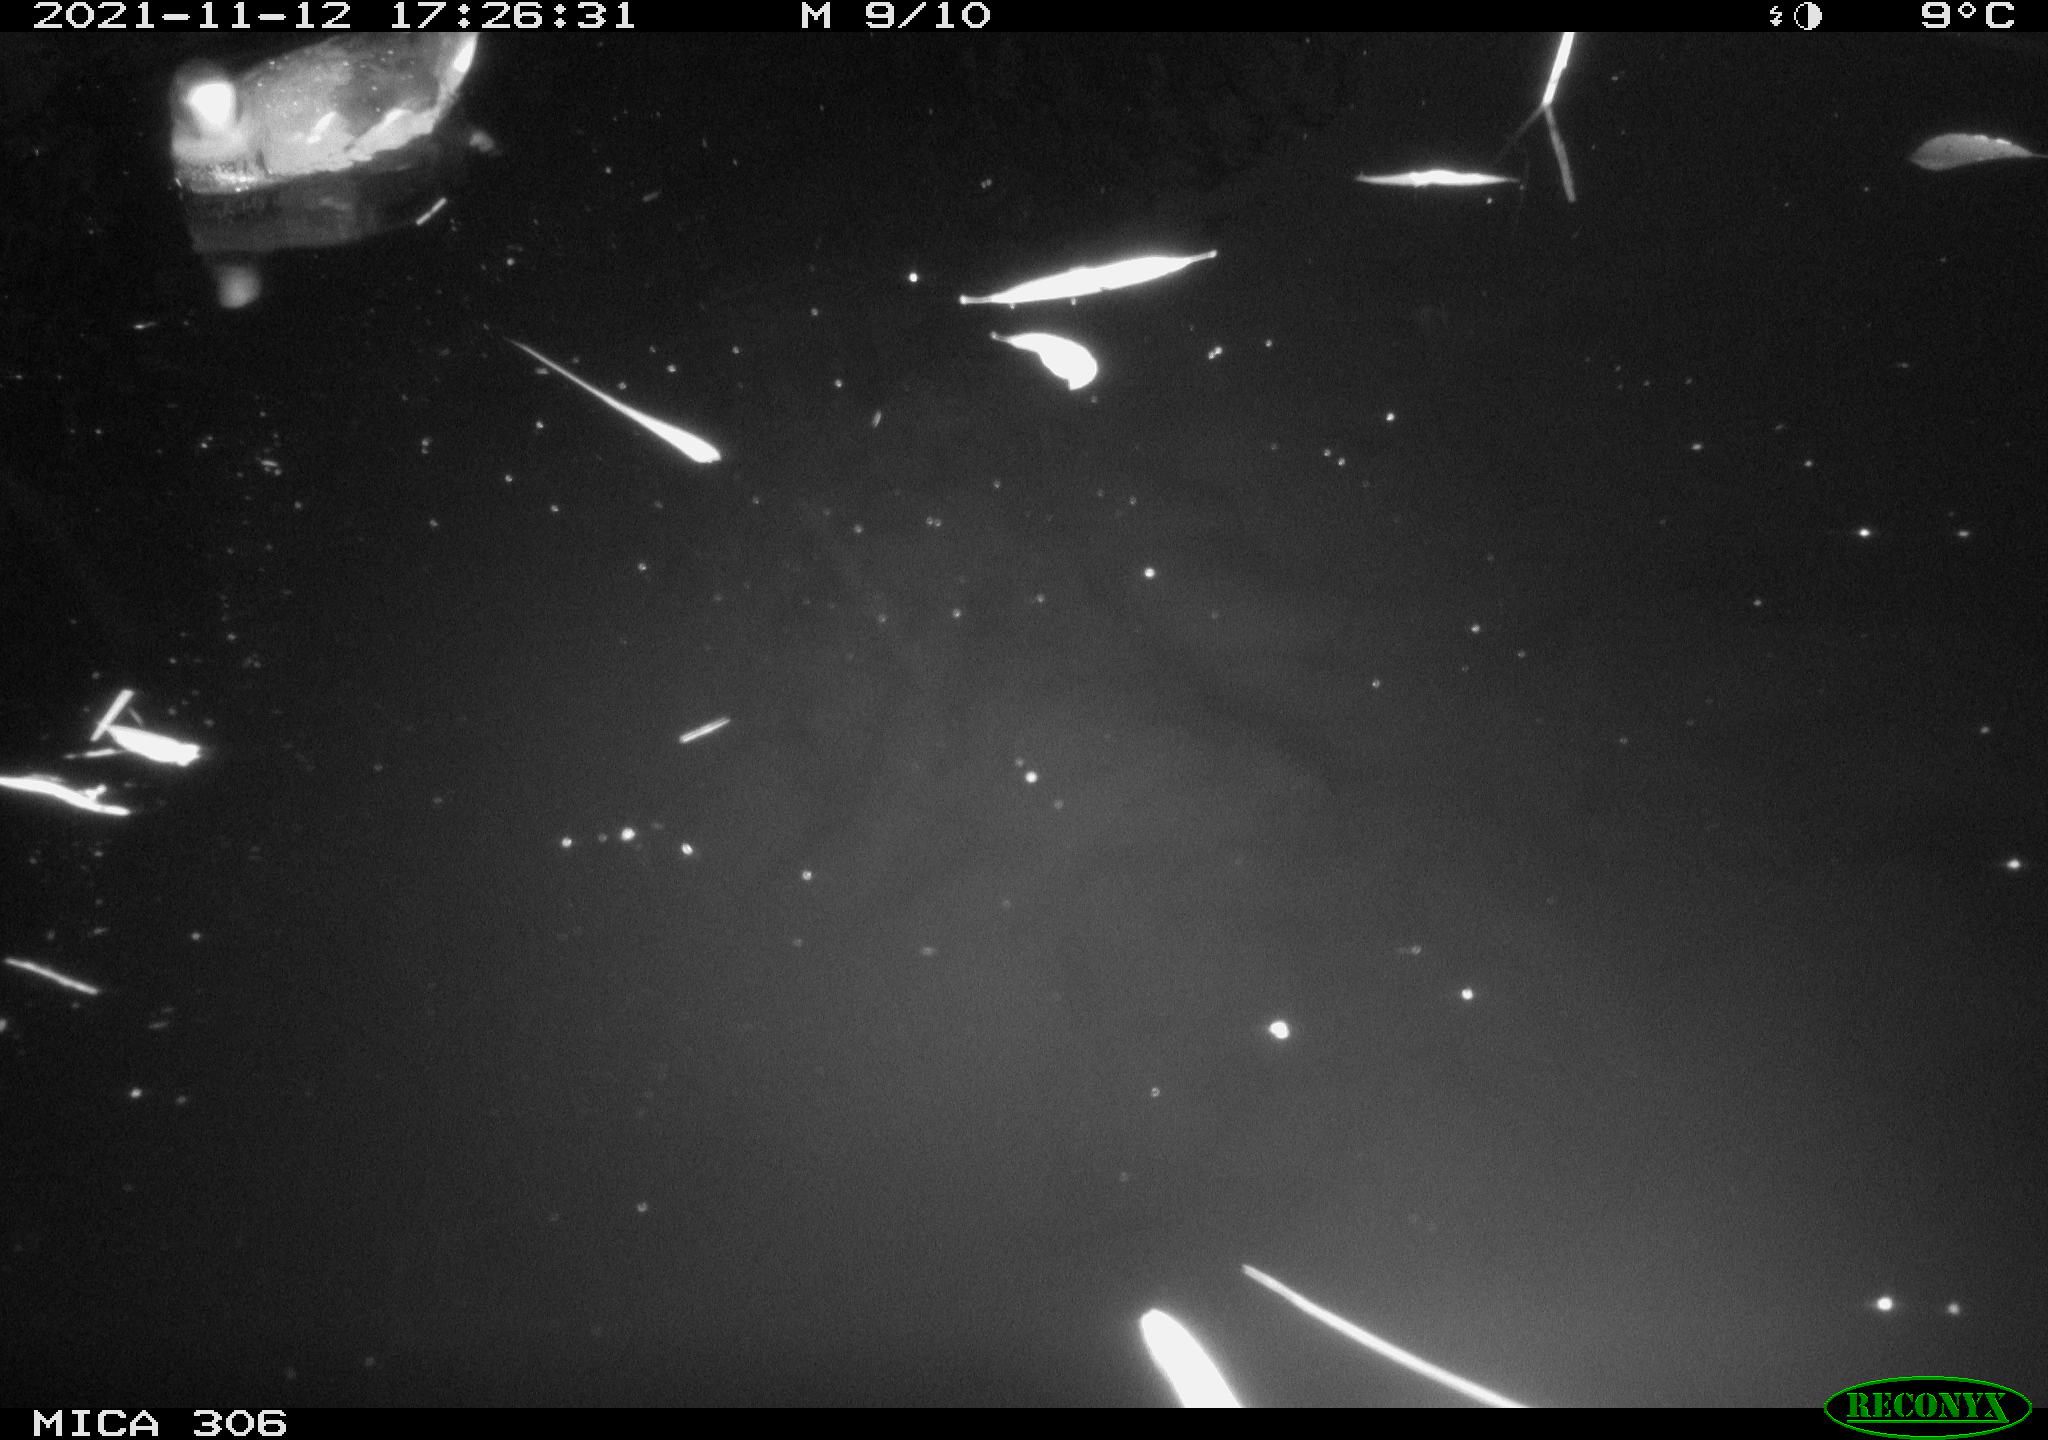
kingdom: Animalia
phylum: Chordata
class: Aves
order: Gruiformes
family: Rallidae
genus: Fulica
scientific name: Fulica atra
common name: Eurasian coot
